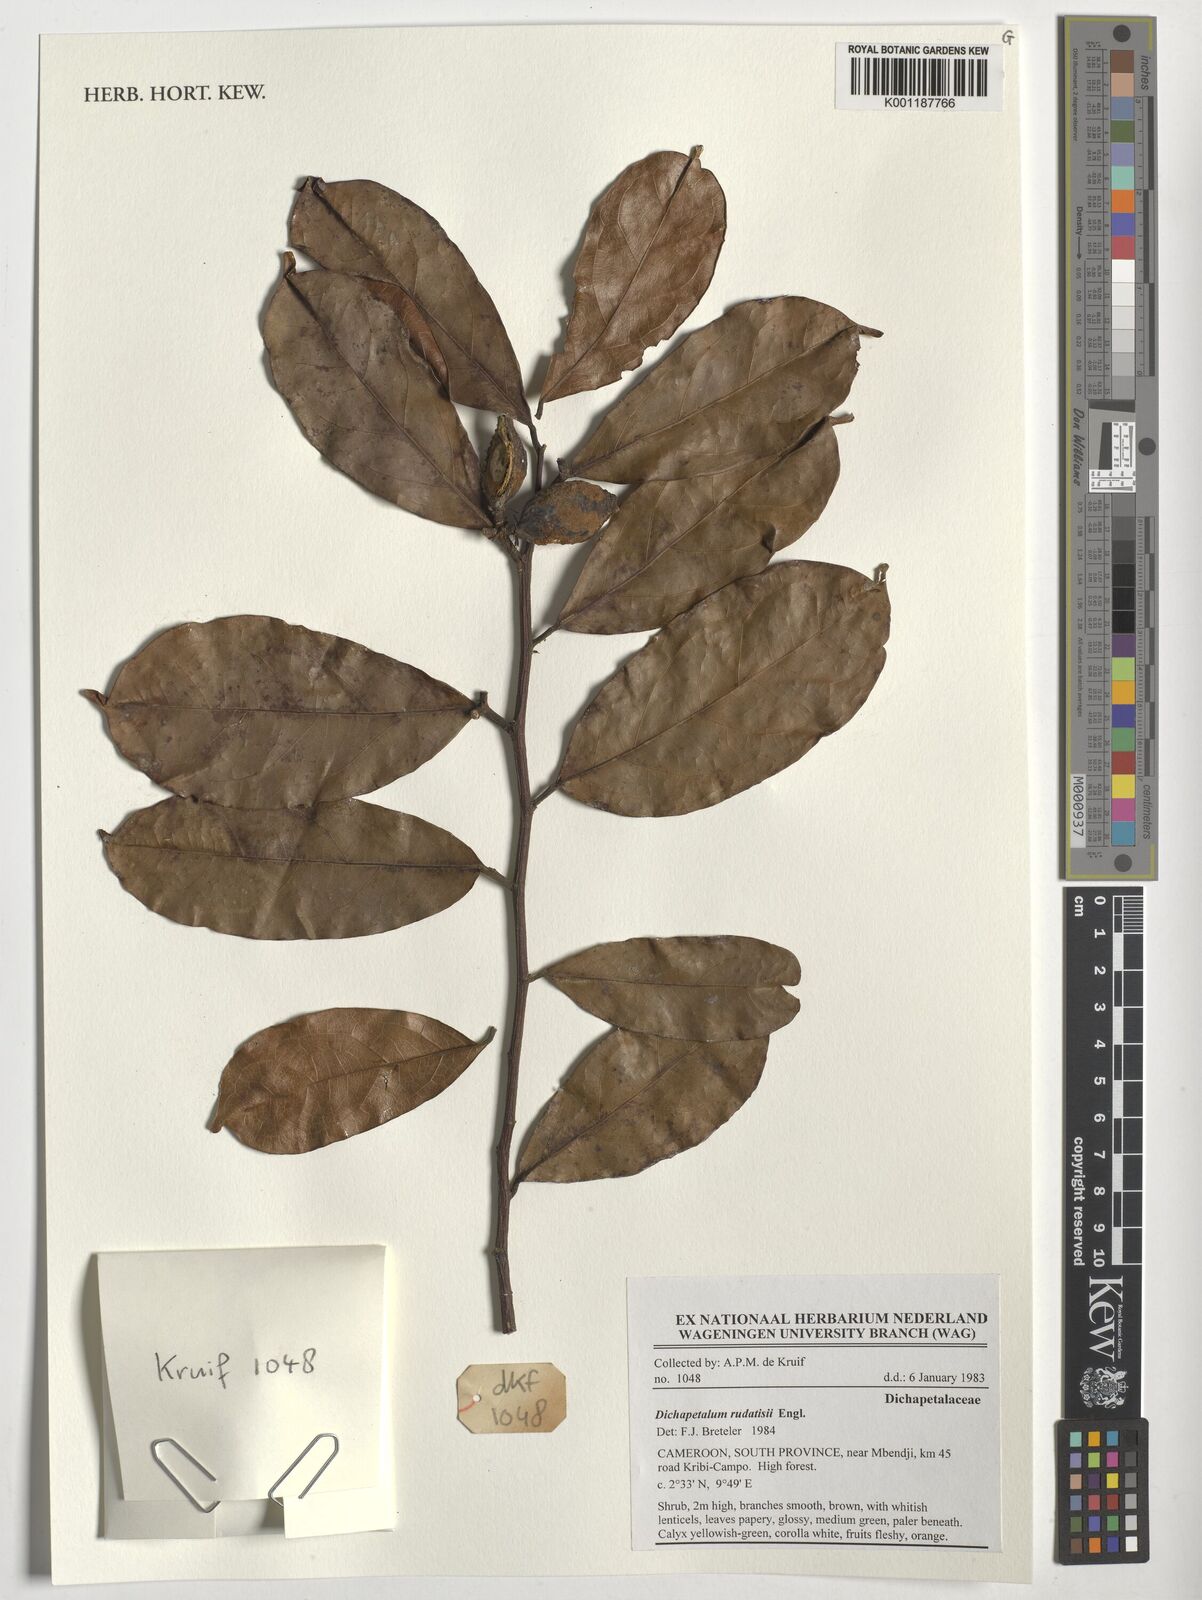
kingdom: Plantae
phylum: Tracheophyta
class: Magnoliopsida
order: Malpighiales
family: Dichapetalaceae
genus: Dichapetalum
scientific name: Dichapetalum rudatisii
